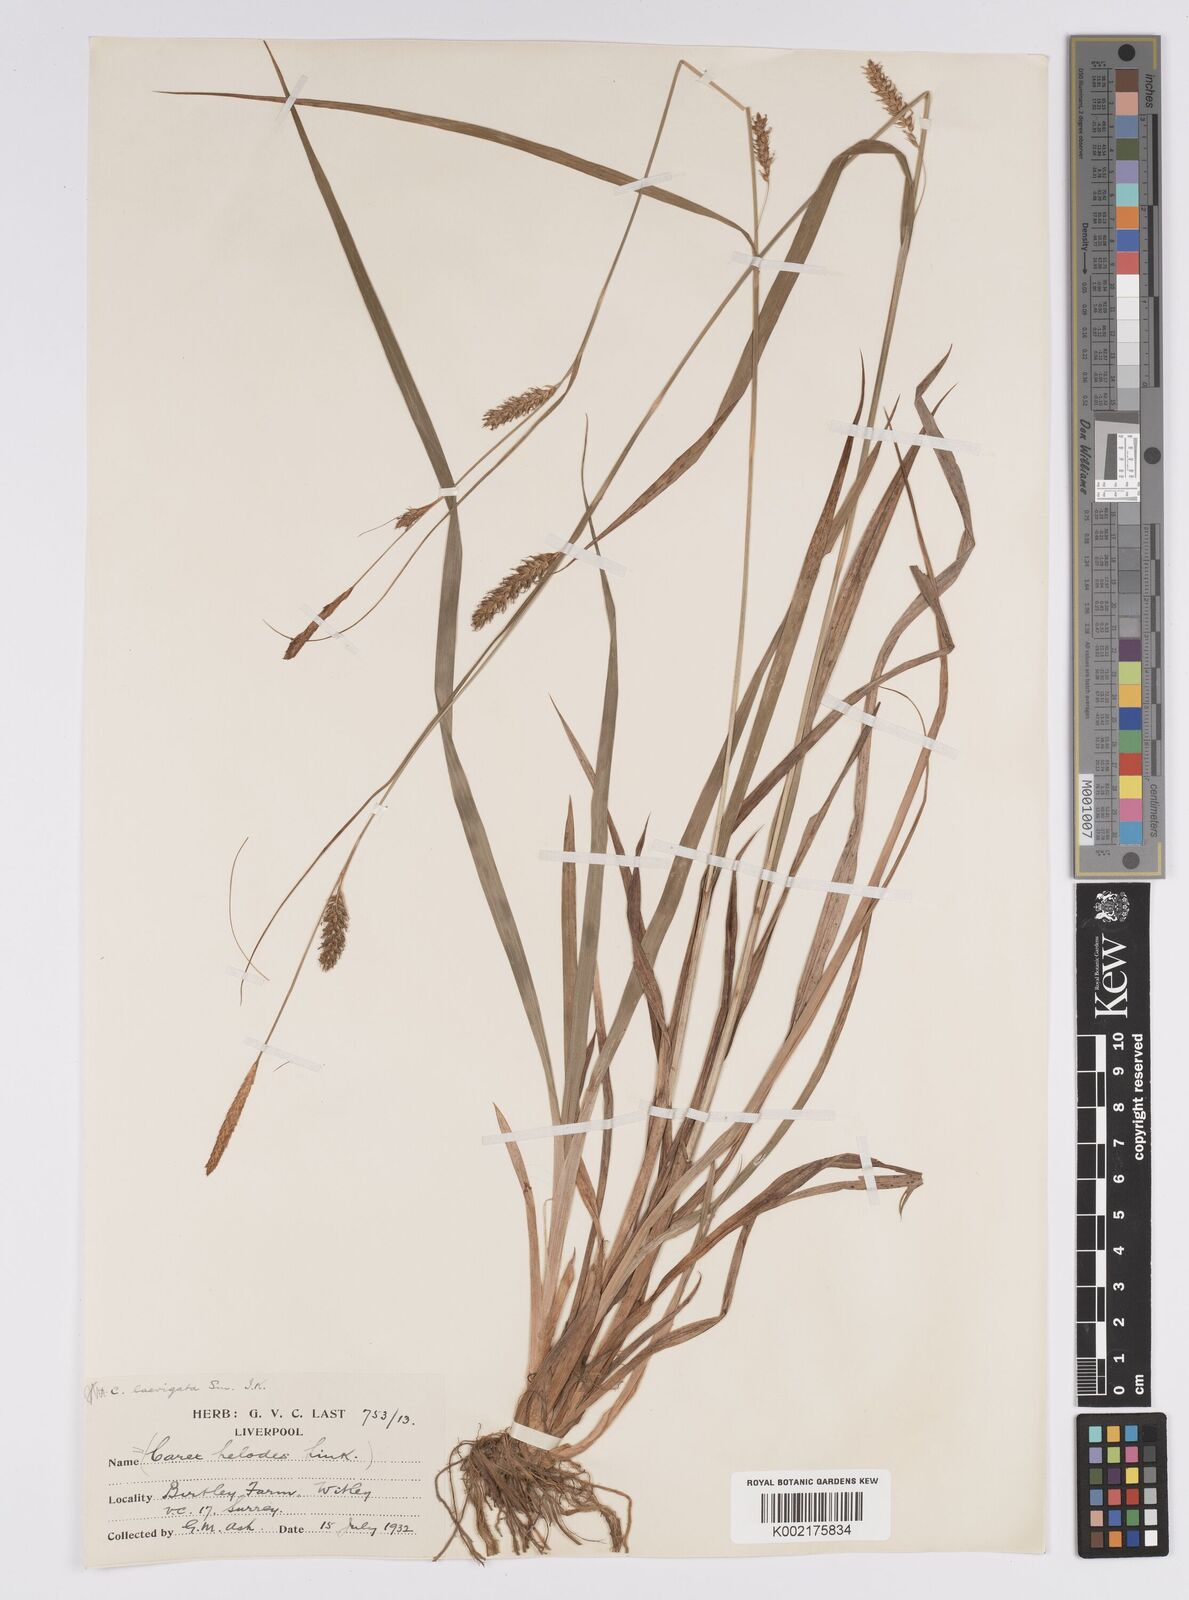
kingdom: Plantae
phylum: Tracheophyta
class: Liliopsida
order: Poales
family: Cyperaceae
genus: Carex
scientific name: Carex laevigata
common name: Smooth-stalked sedge
